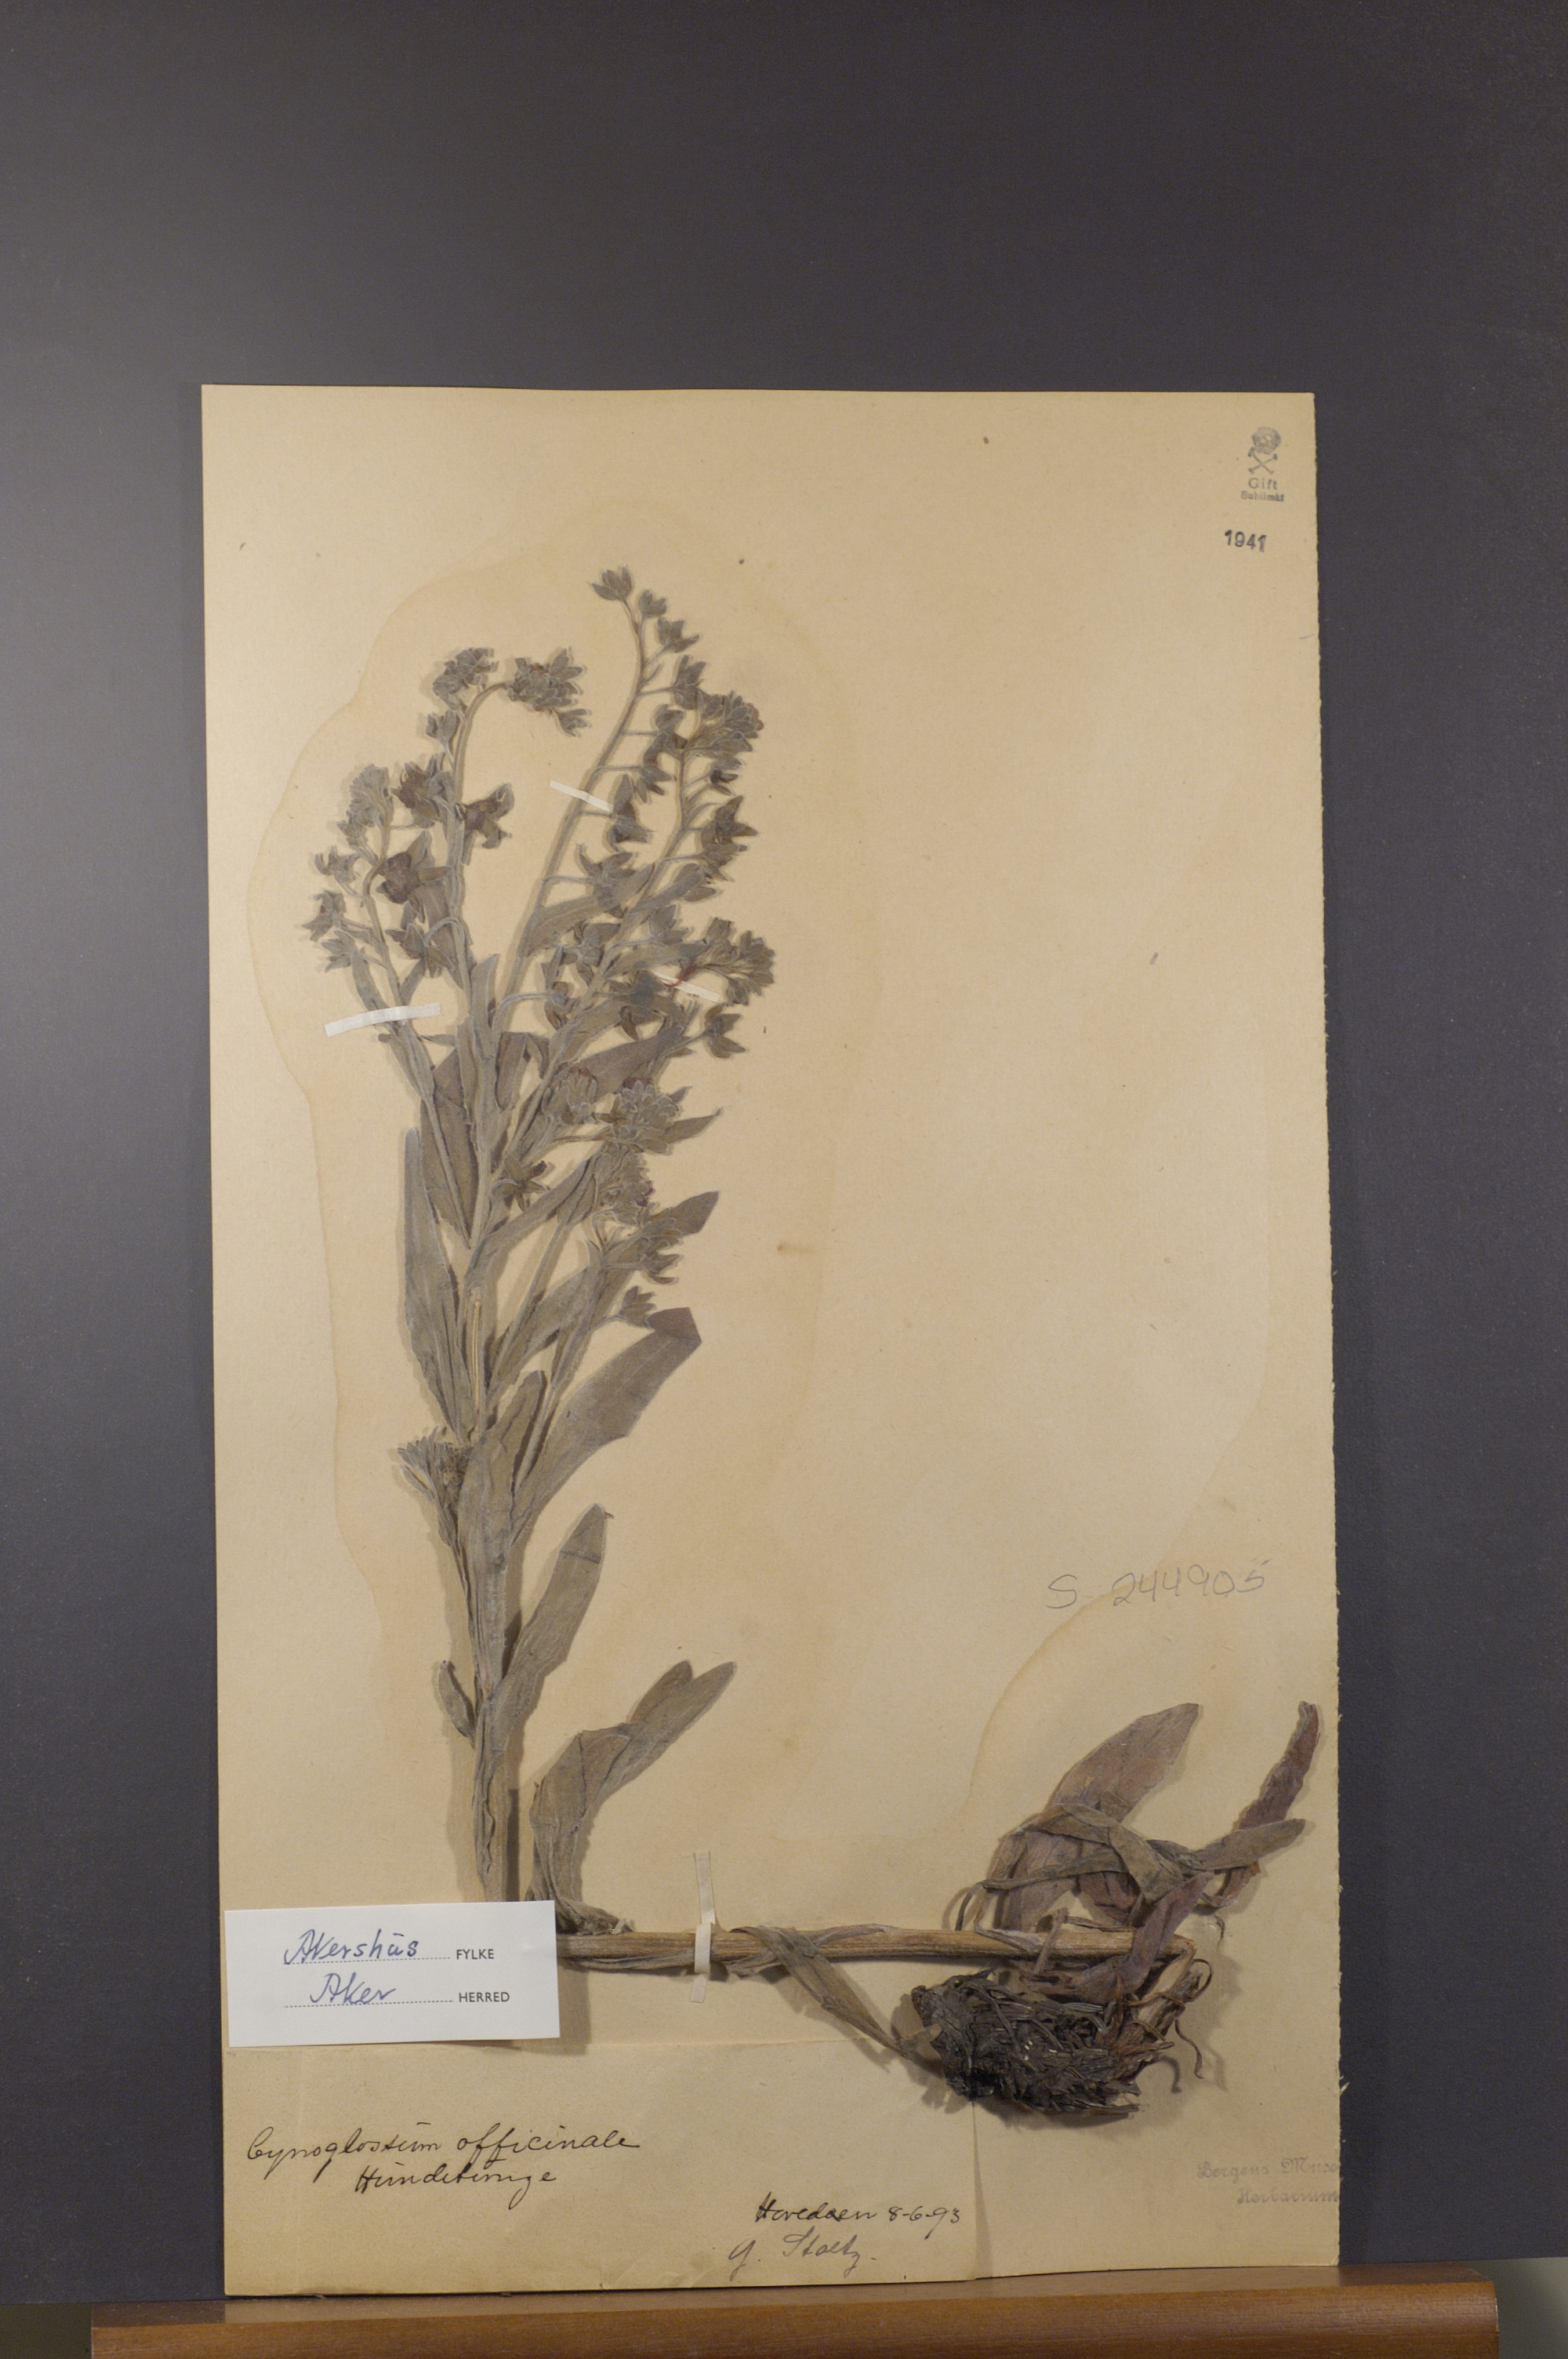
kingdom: Plantae
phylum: Tracheophyta
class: Magnoliopsida
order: Boraginales
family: Boraginaceae
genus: Cynoglossum
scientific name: Cynoglossum officinale
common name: Hound's-tongue
